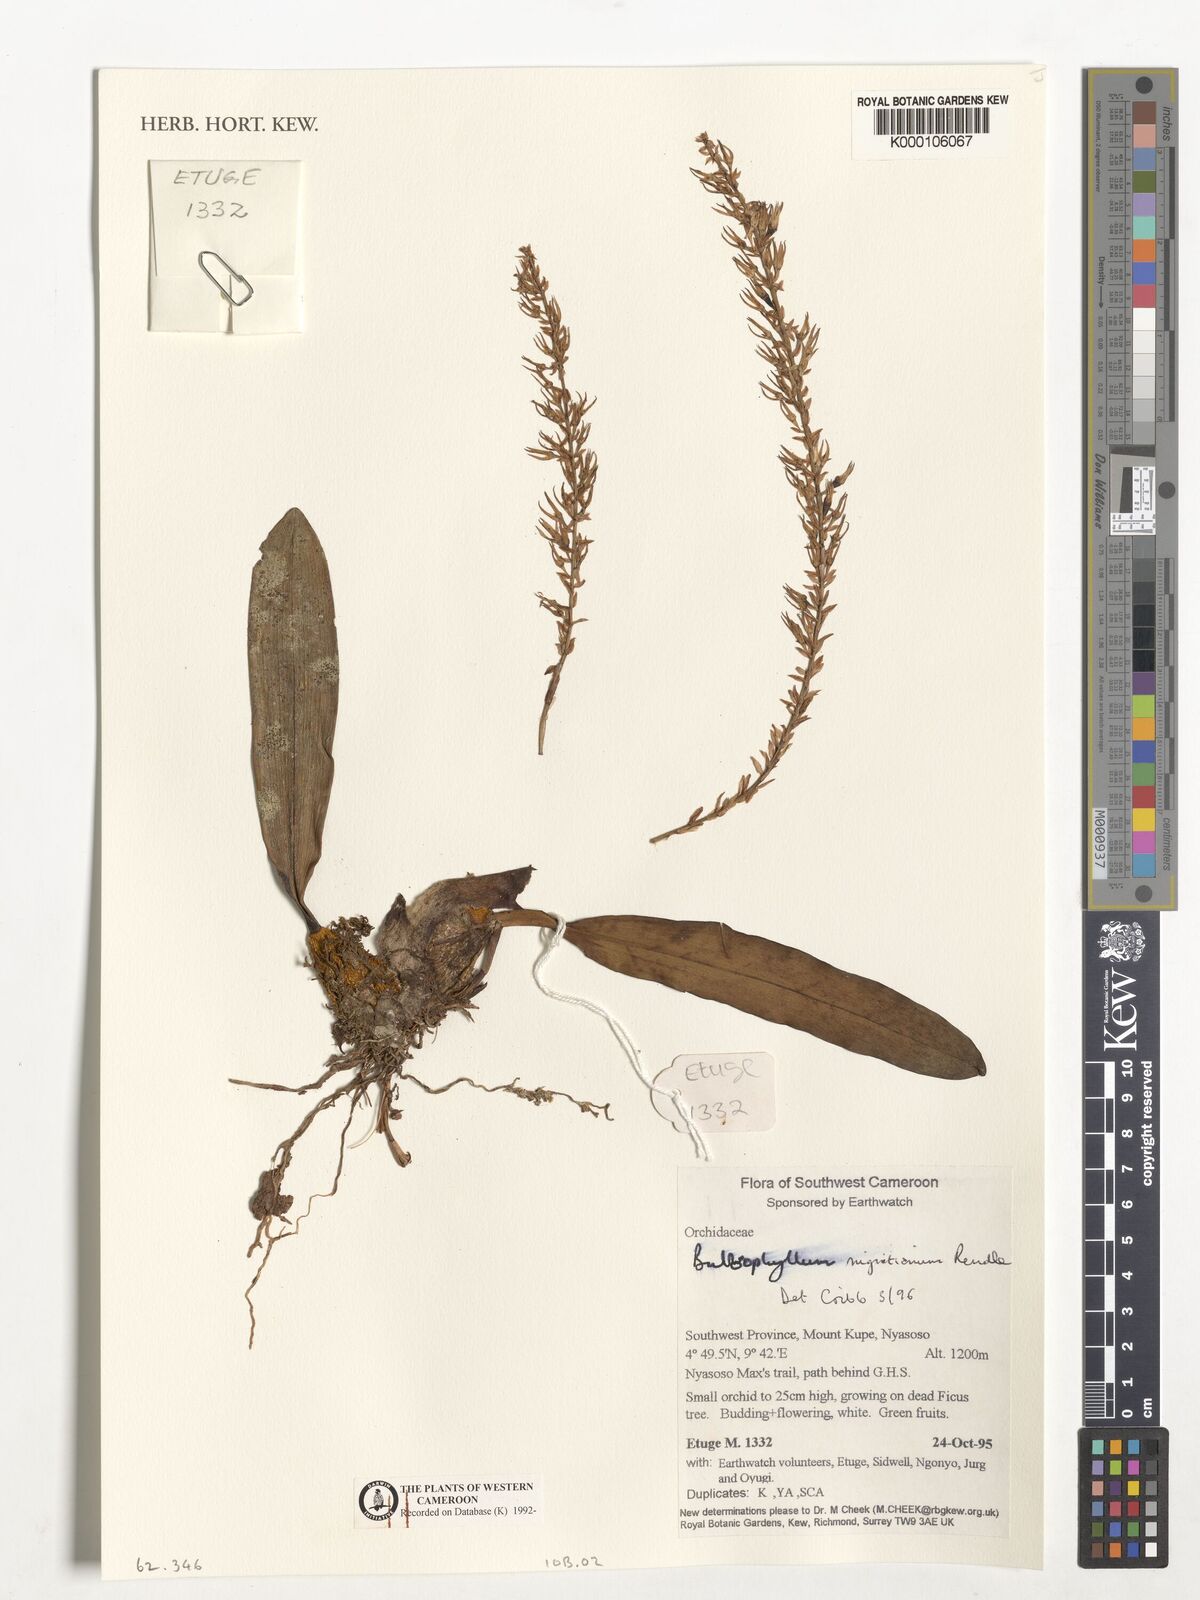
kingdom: Plantae
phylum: Tracheophyta
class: Liliopsida
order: Asparagales
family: Orchidaceae
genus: Bulbophyllum
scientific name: Bulbophyllum nigritianum
